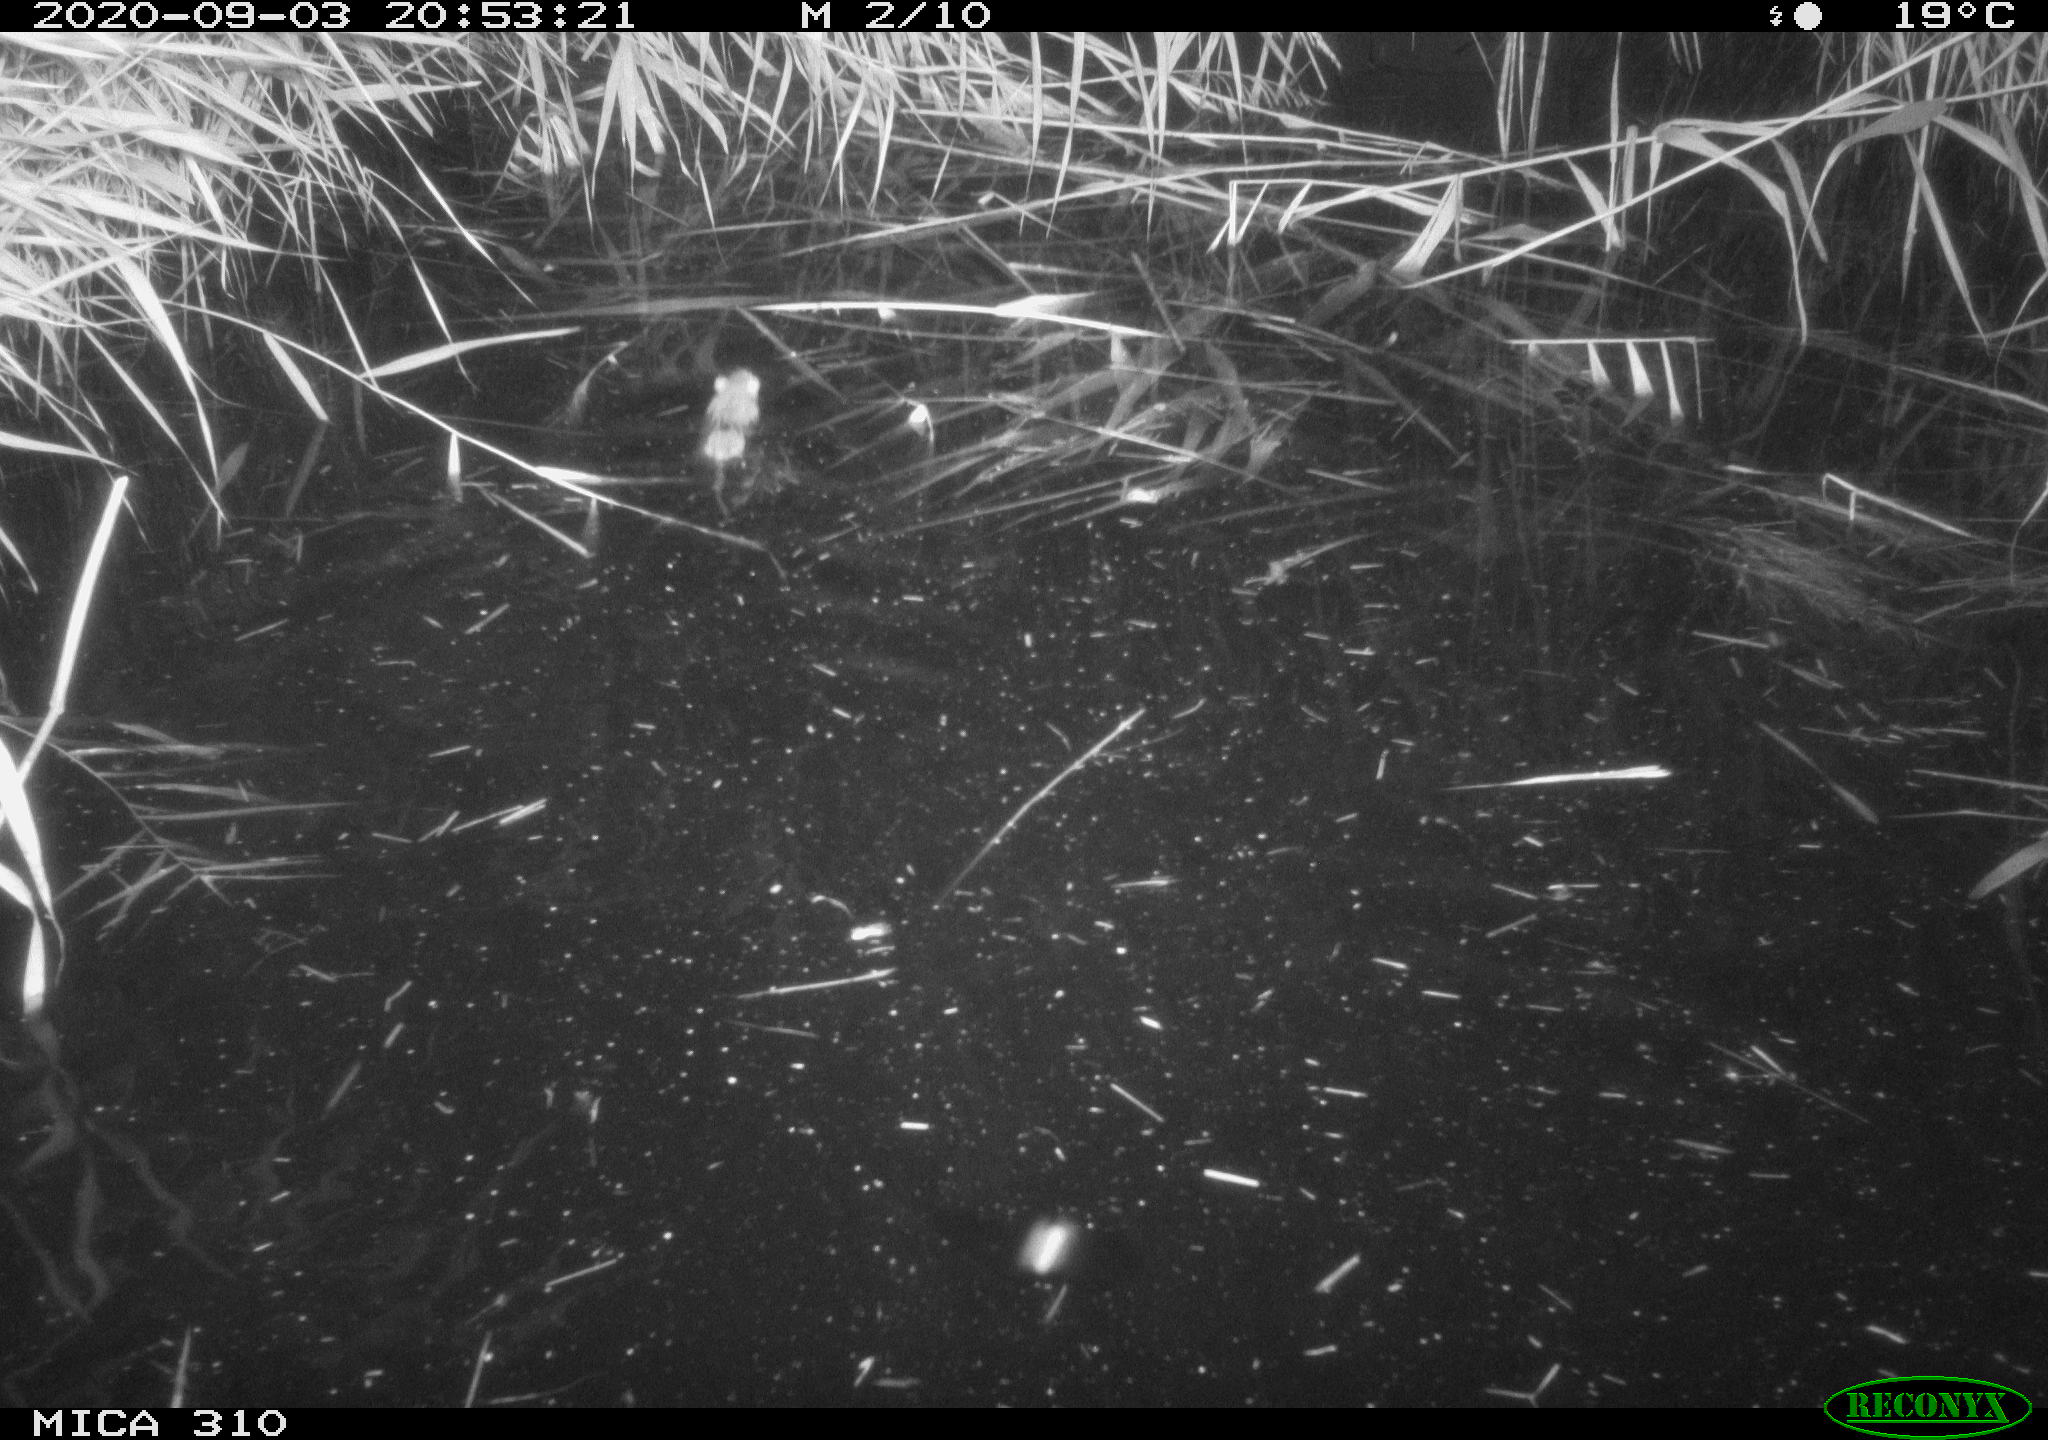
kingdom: Animalia
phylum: Chordata
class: Mammalia
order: Rodentia
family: Muridae
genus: Rattus
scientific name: Rattus norvegicus
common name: Brown rat
